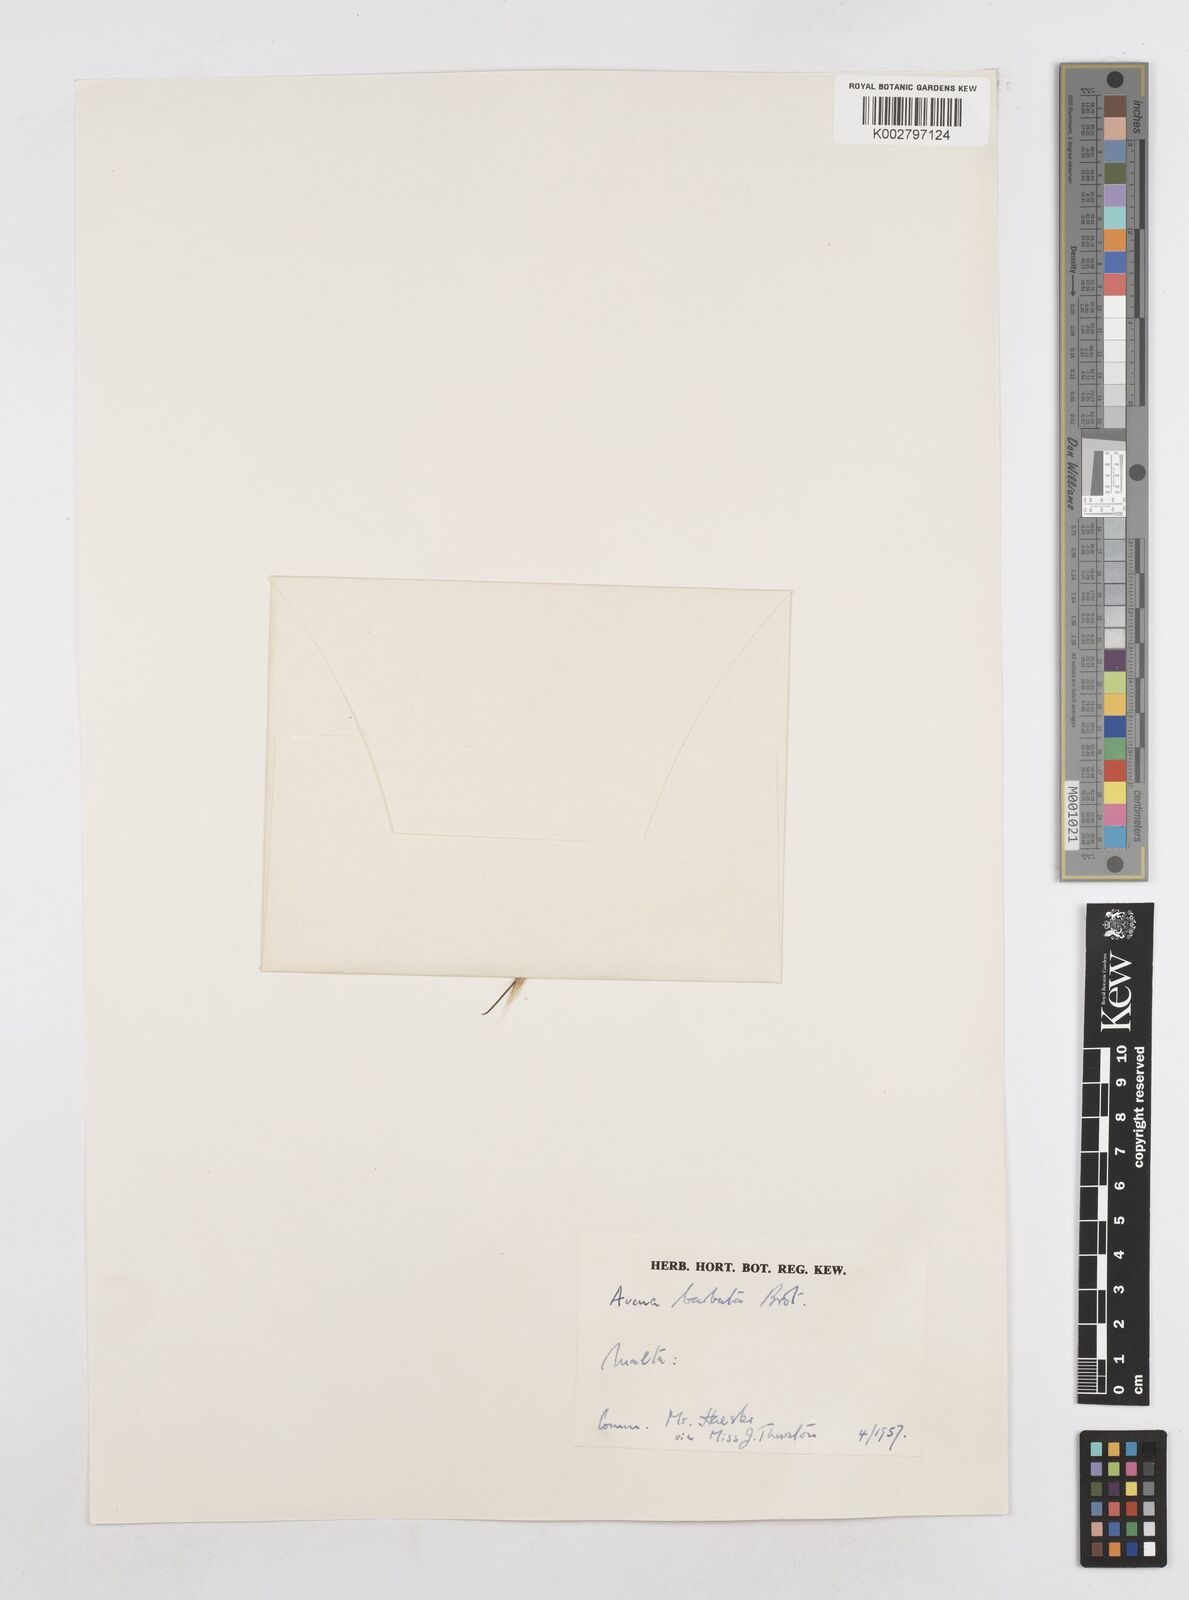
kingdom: Plantae
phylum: Tracheophyta
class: Liliopsida
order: Poales
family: Poaceae
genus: Avena
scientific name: Avena
